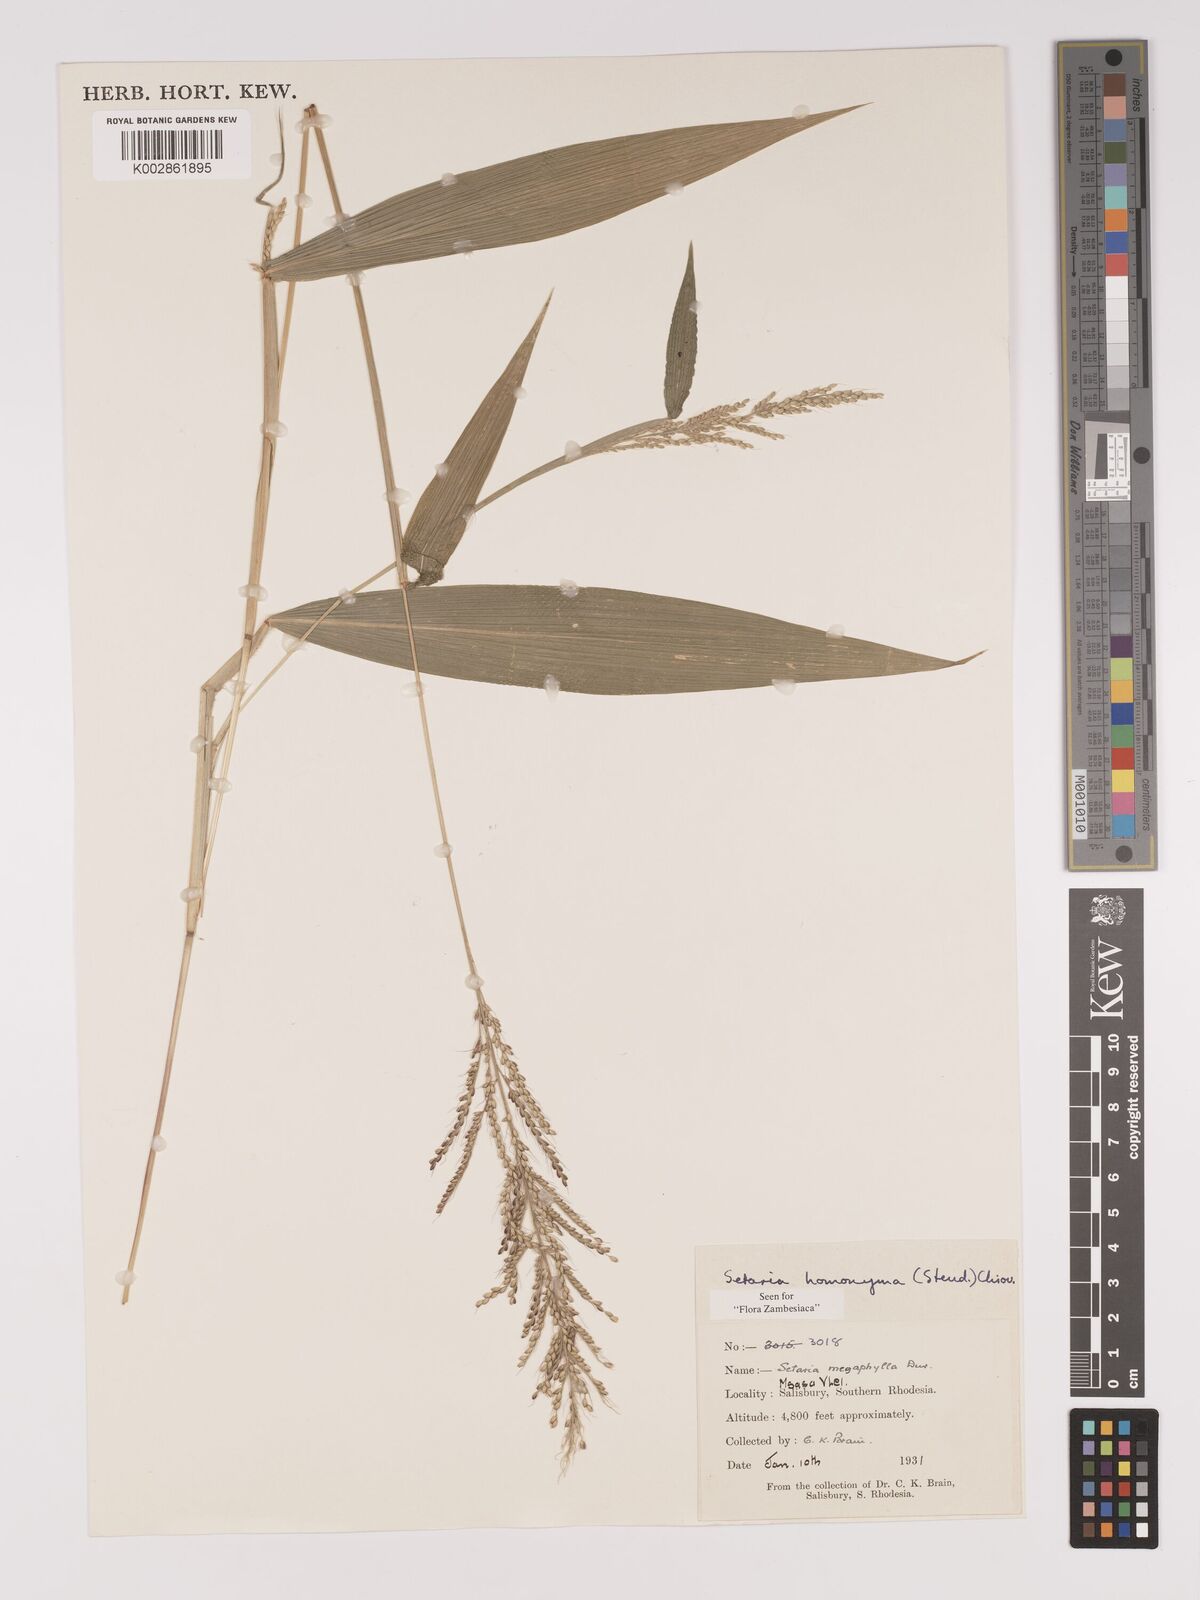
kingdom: Plantae
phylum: Tracheophyta
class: Liliopsida
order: Poales
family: Poaceae
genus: Setaria
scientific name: Setaria homonyma
